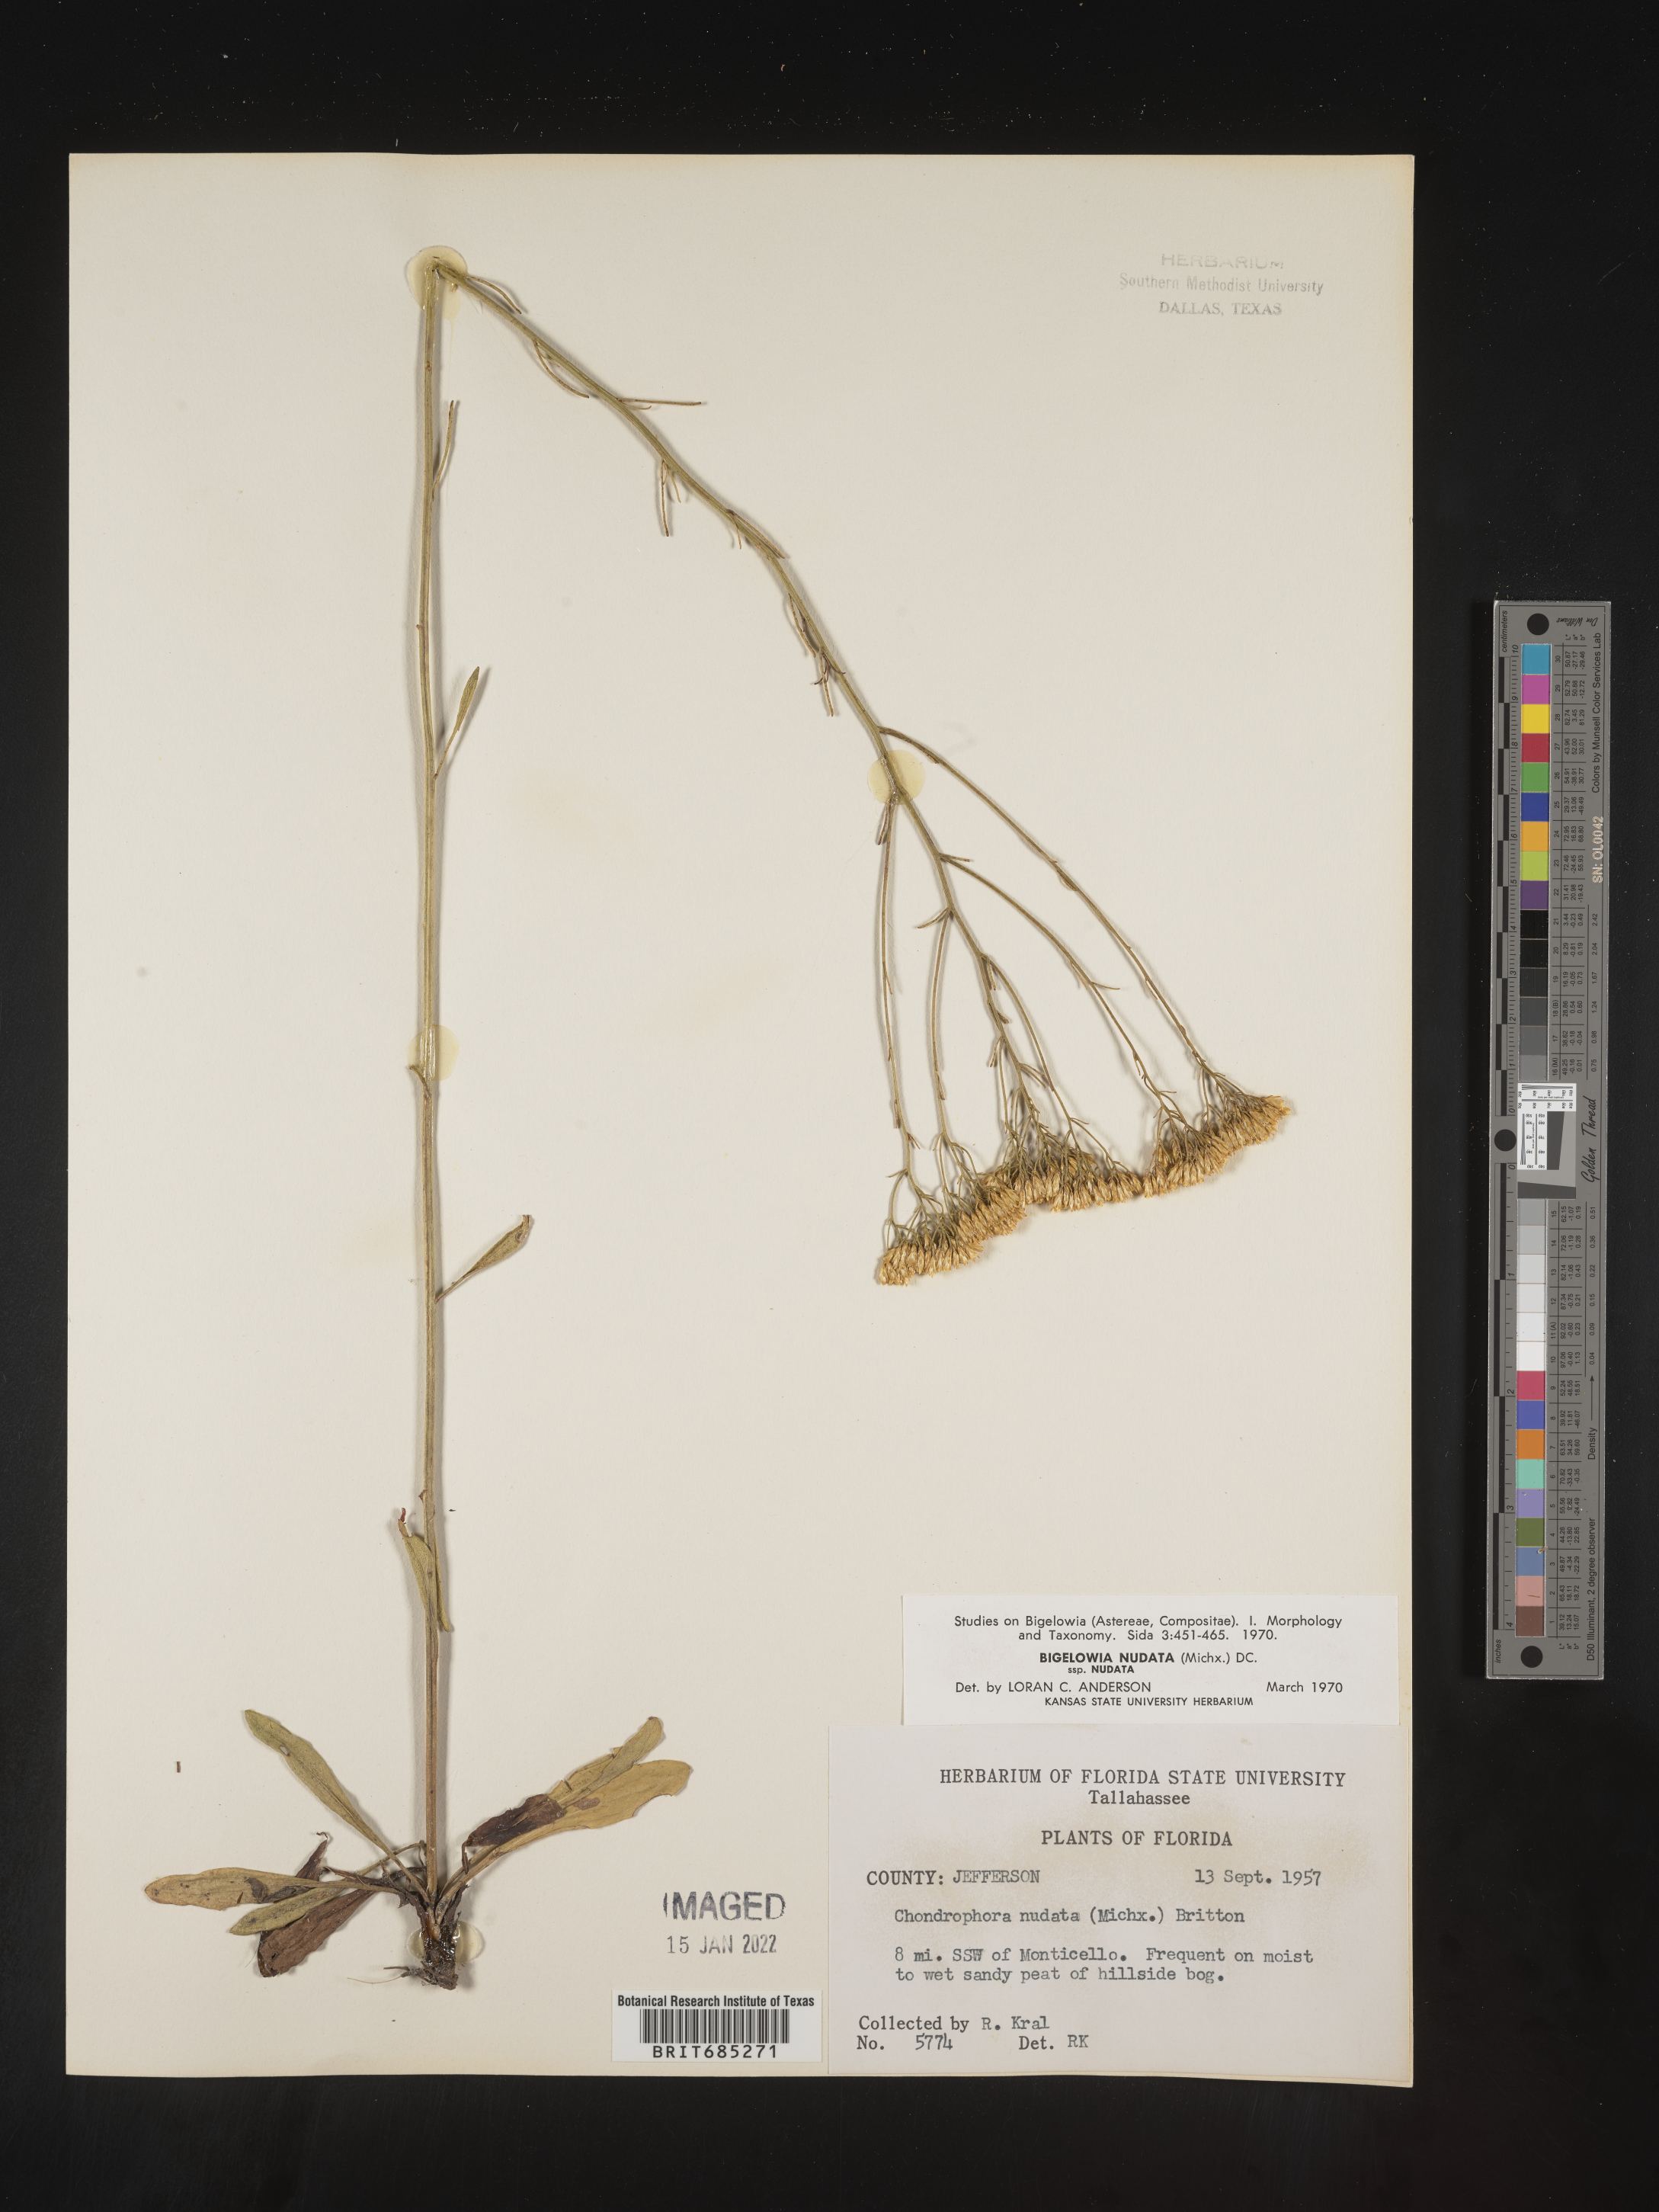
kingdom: Plantae
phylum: Tracheophyta
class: Magnoliopsida
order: Asterales
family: Asteraceae
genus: Bigelowia
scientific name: Bigelowia nudata
